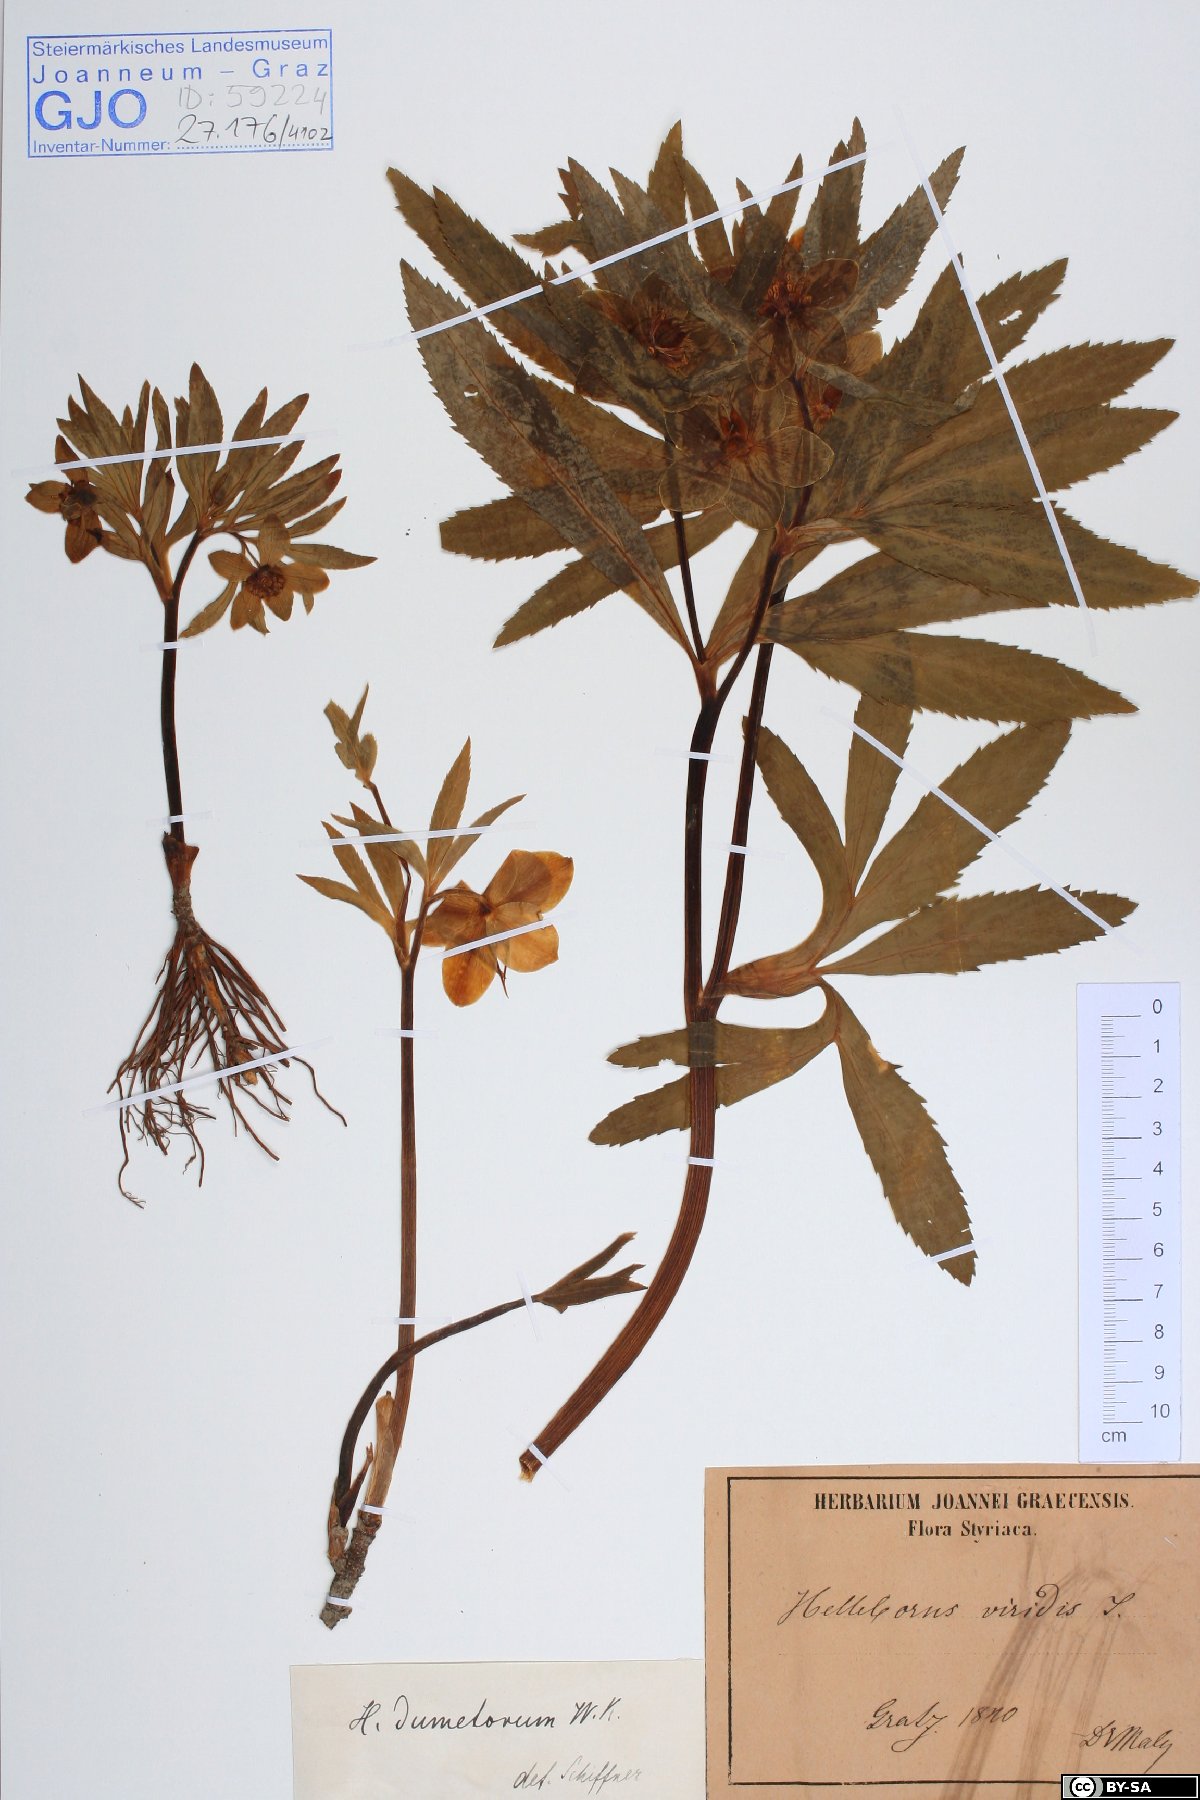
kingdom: Plantae
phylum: Tracheophyta
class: Magnoliopsida
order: Ranunculales
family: Ranunculaceae
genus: Helleborus
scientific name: Helleborus dumetorum
